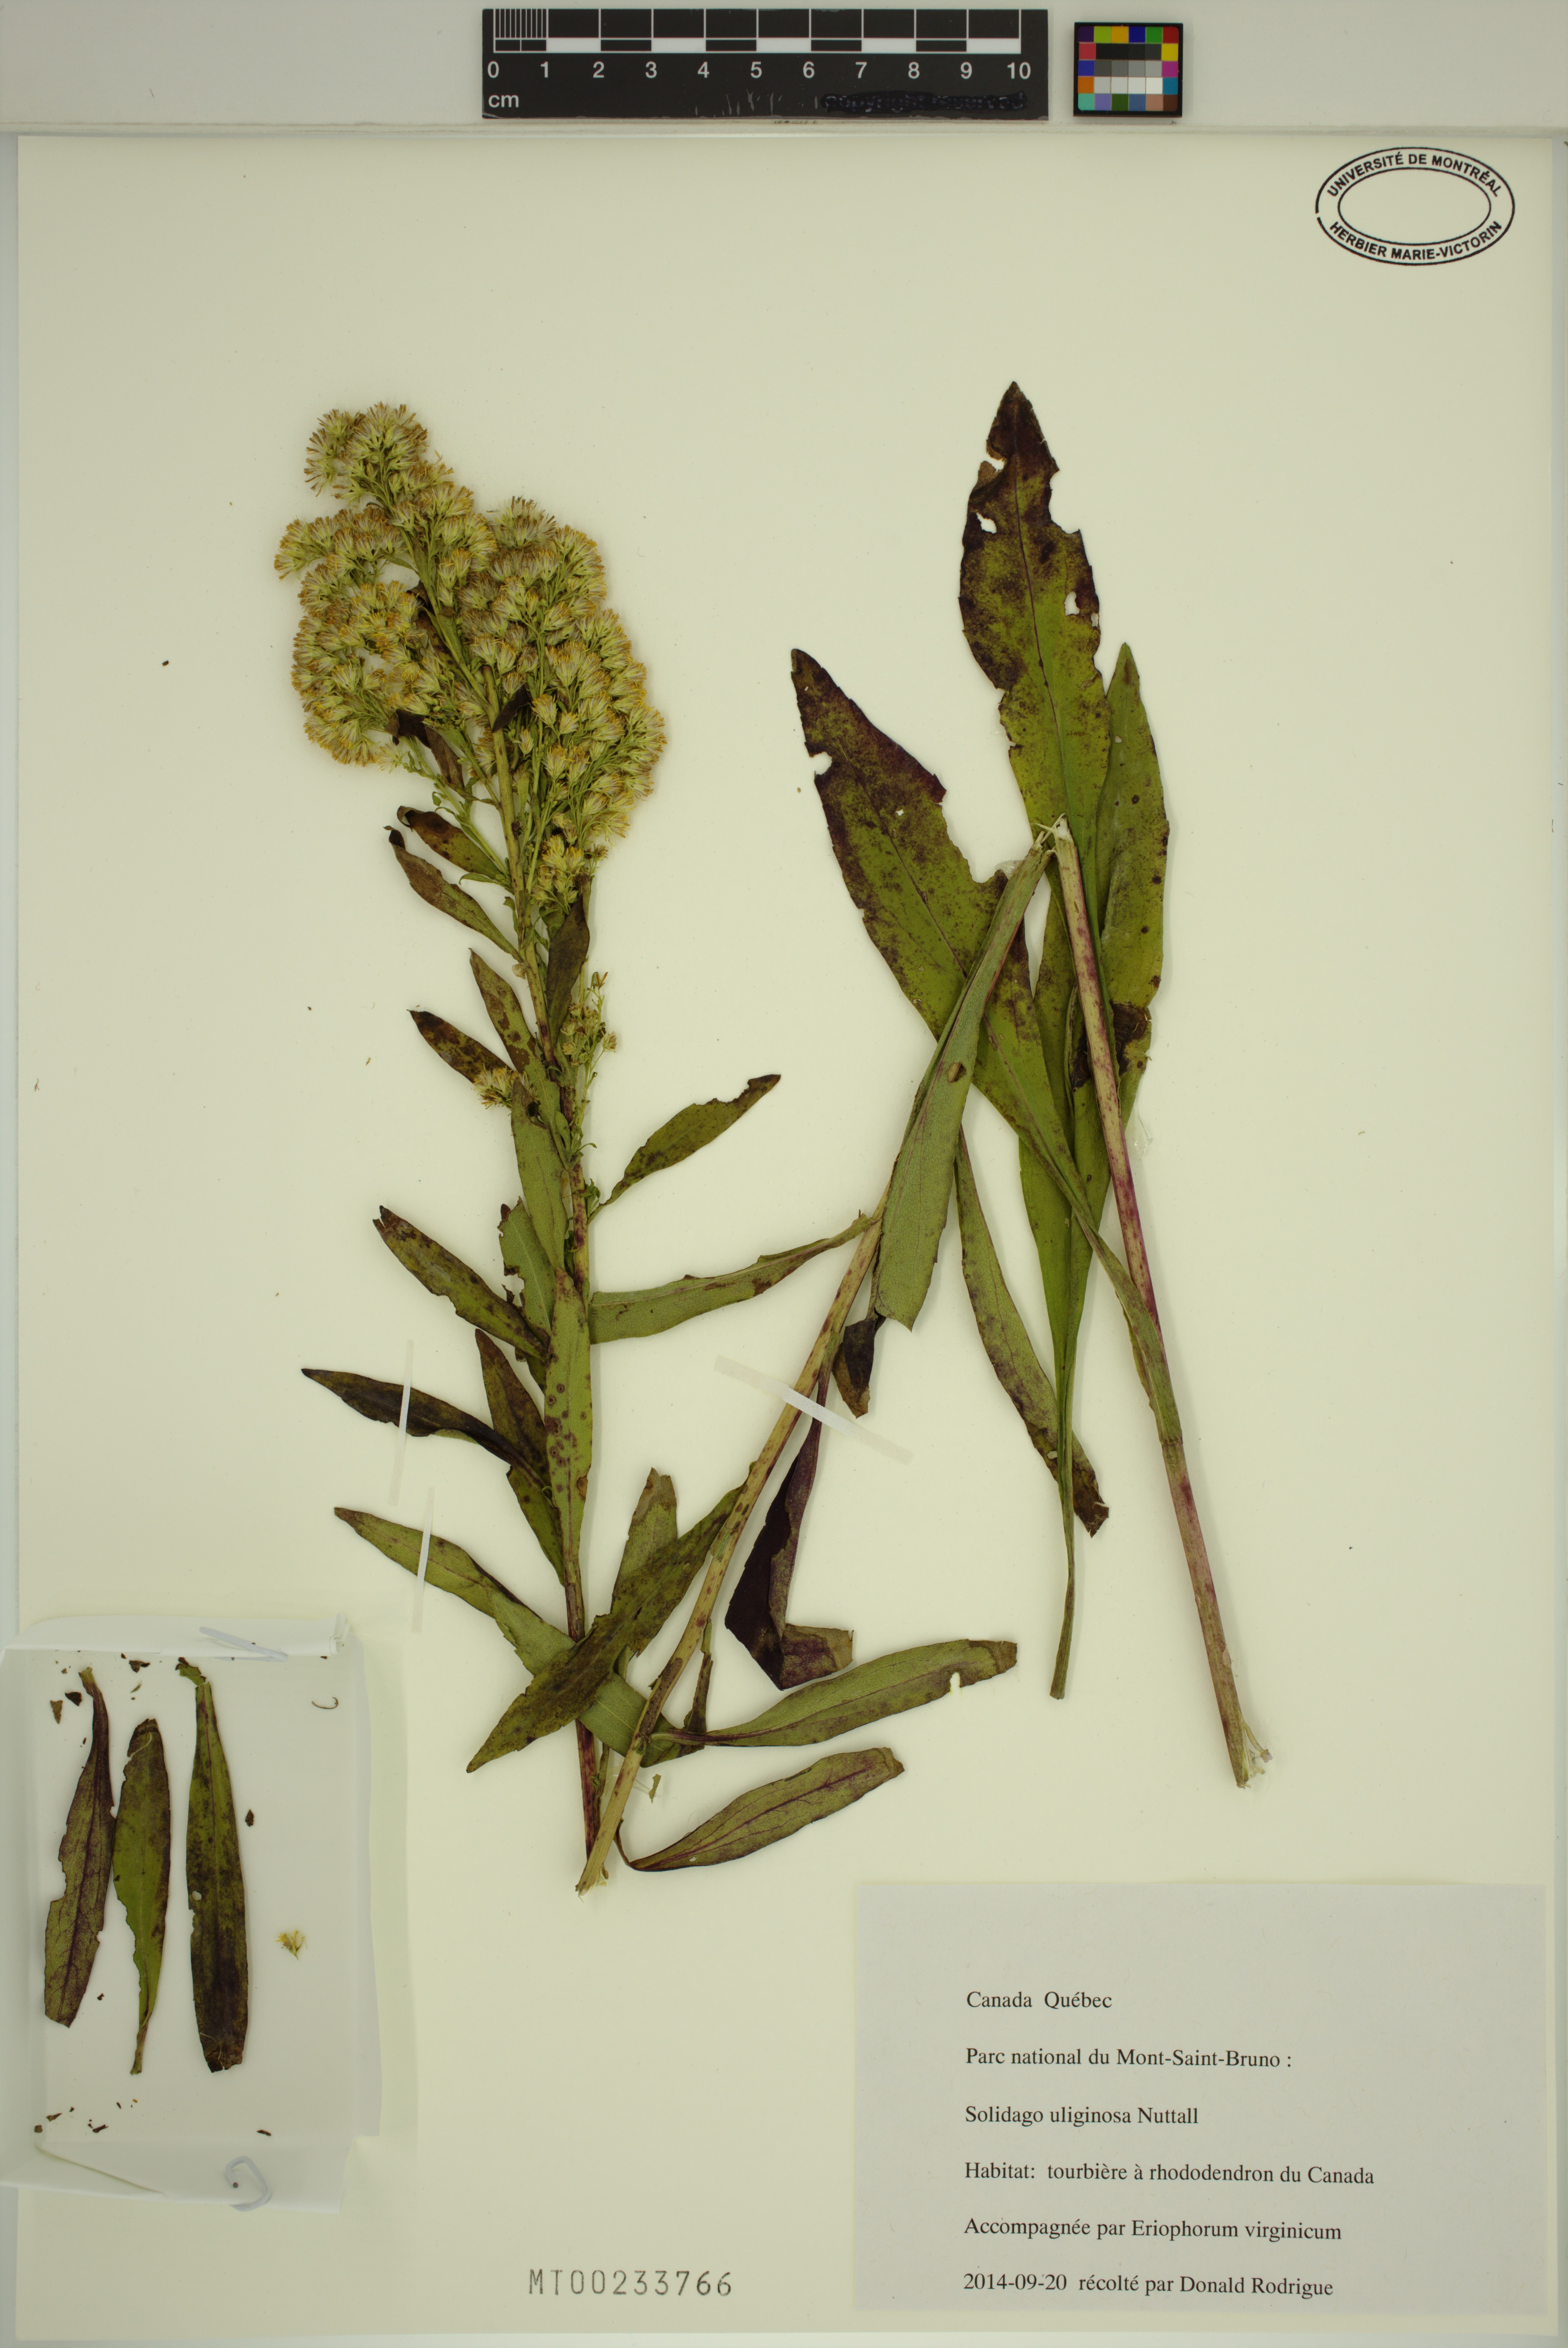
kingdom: Plantae
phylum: Tracheophyta
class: Magnoliopsida
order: Asterales
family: Asteraceae
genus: Solidago
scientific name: Solidago uliginosa
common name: Bog goldenrod
